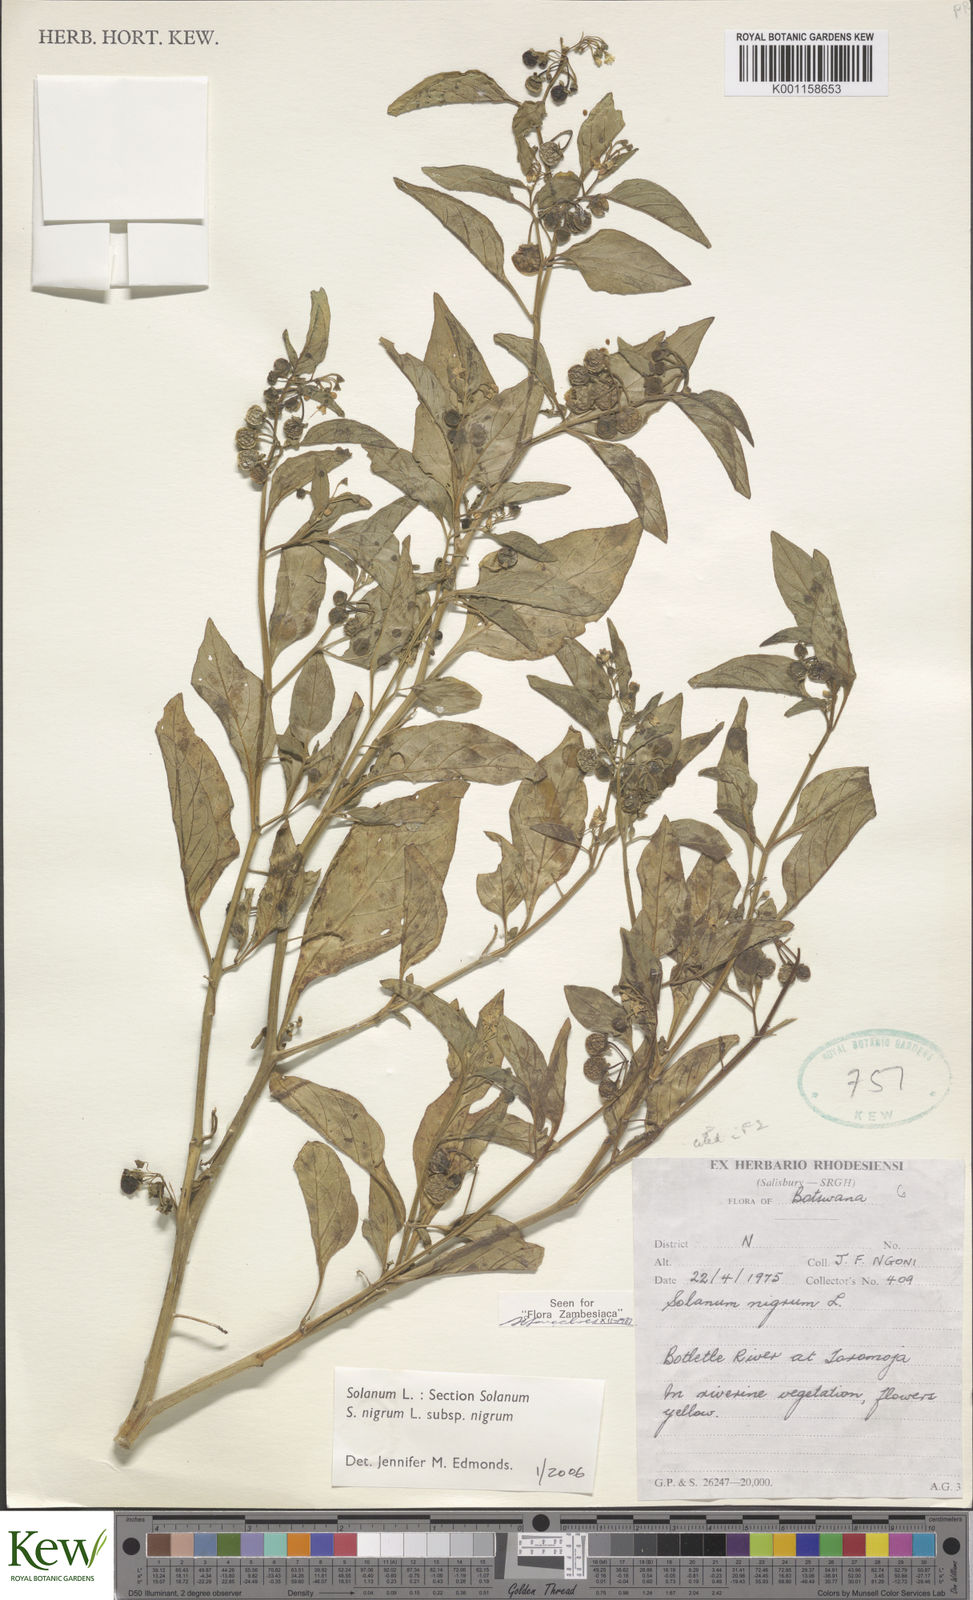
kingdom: Plantae
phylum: Tracheophyta
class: Magnoliopsida
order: Solanales
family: Solanaceae
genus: Solanum
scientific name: Solanum nigrum
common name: Black nightshade
